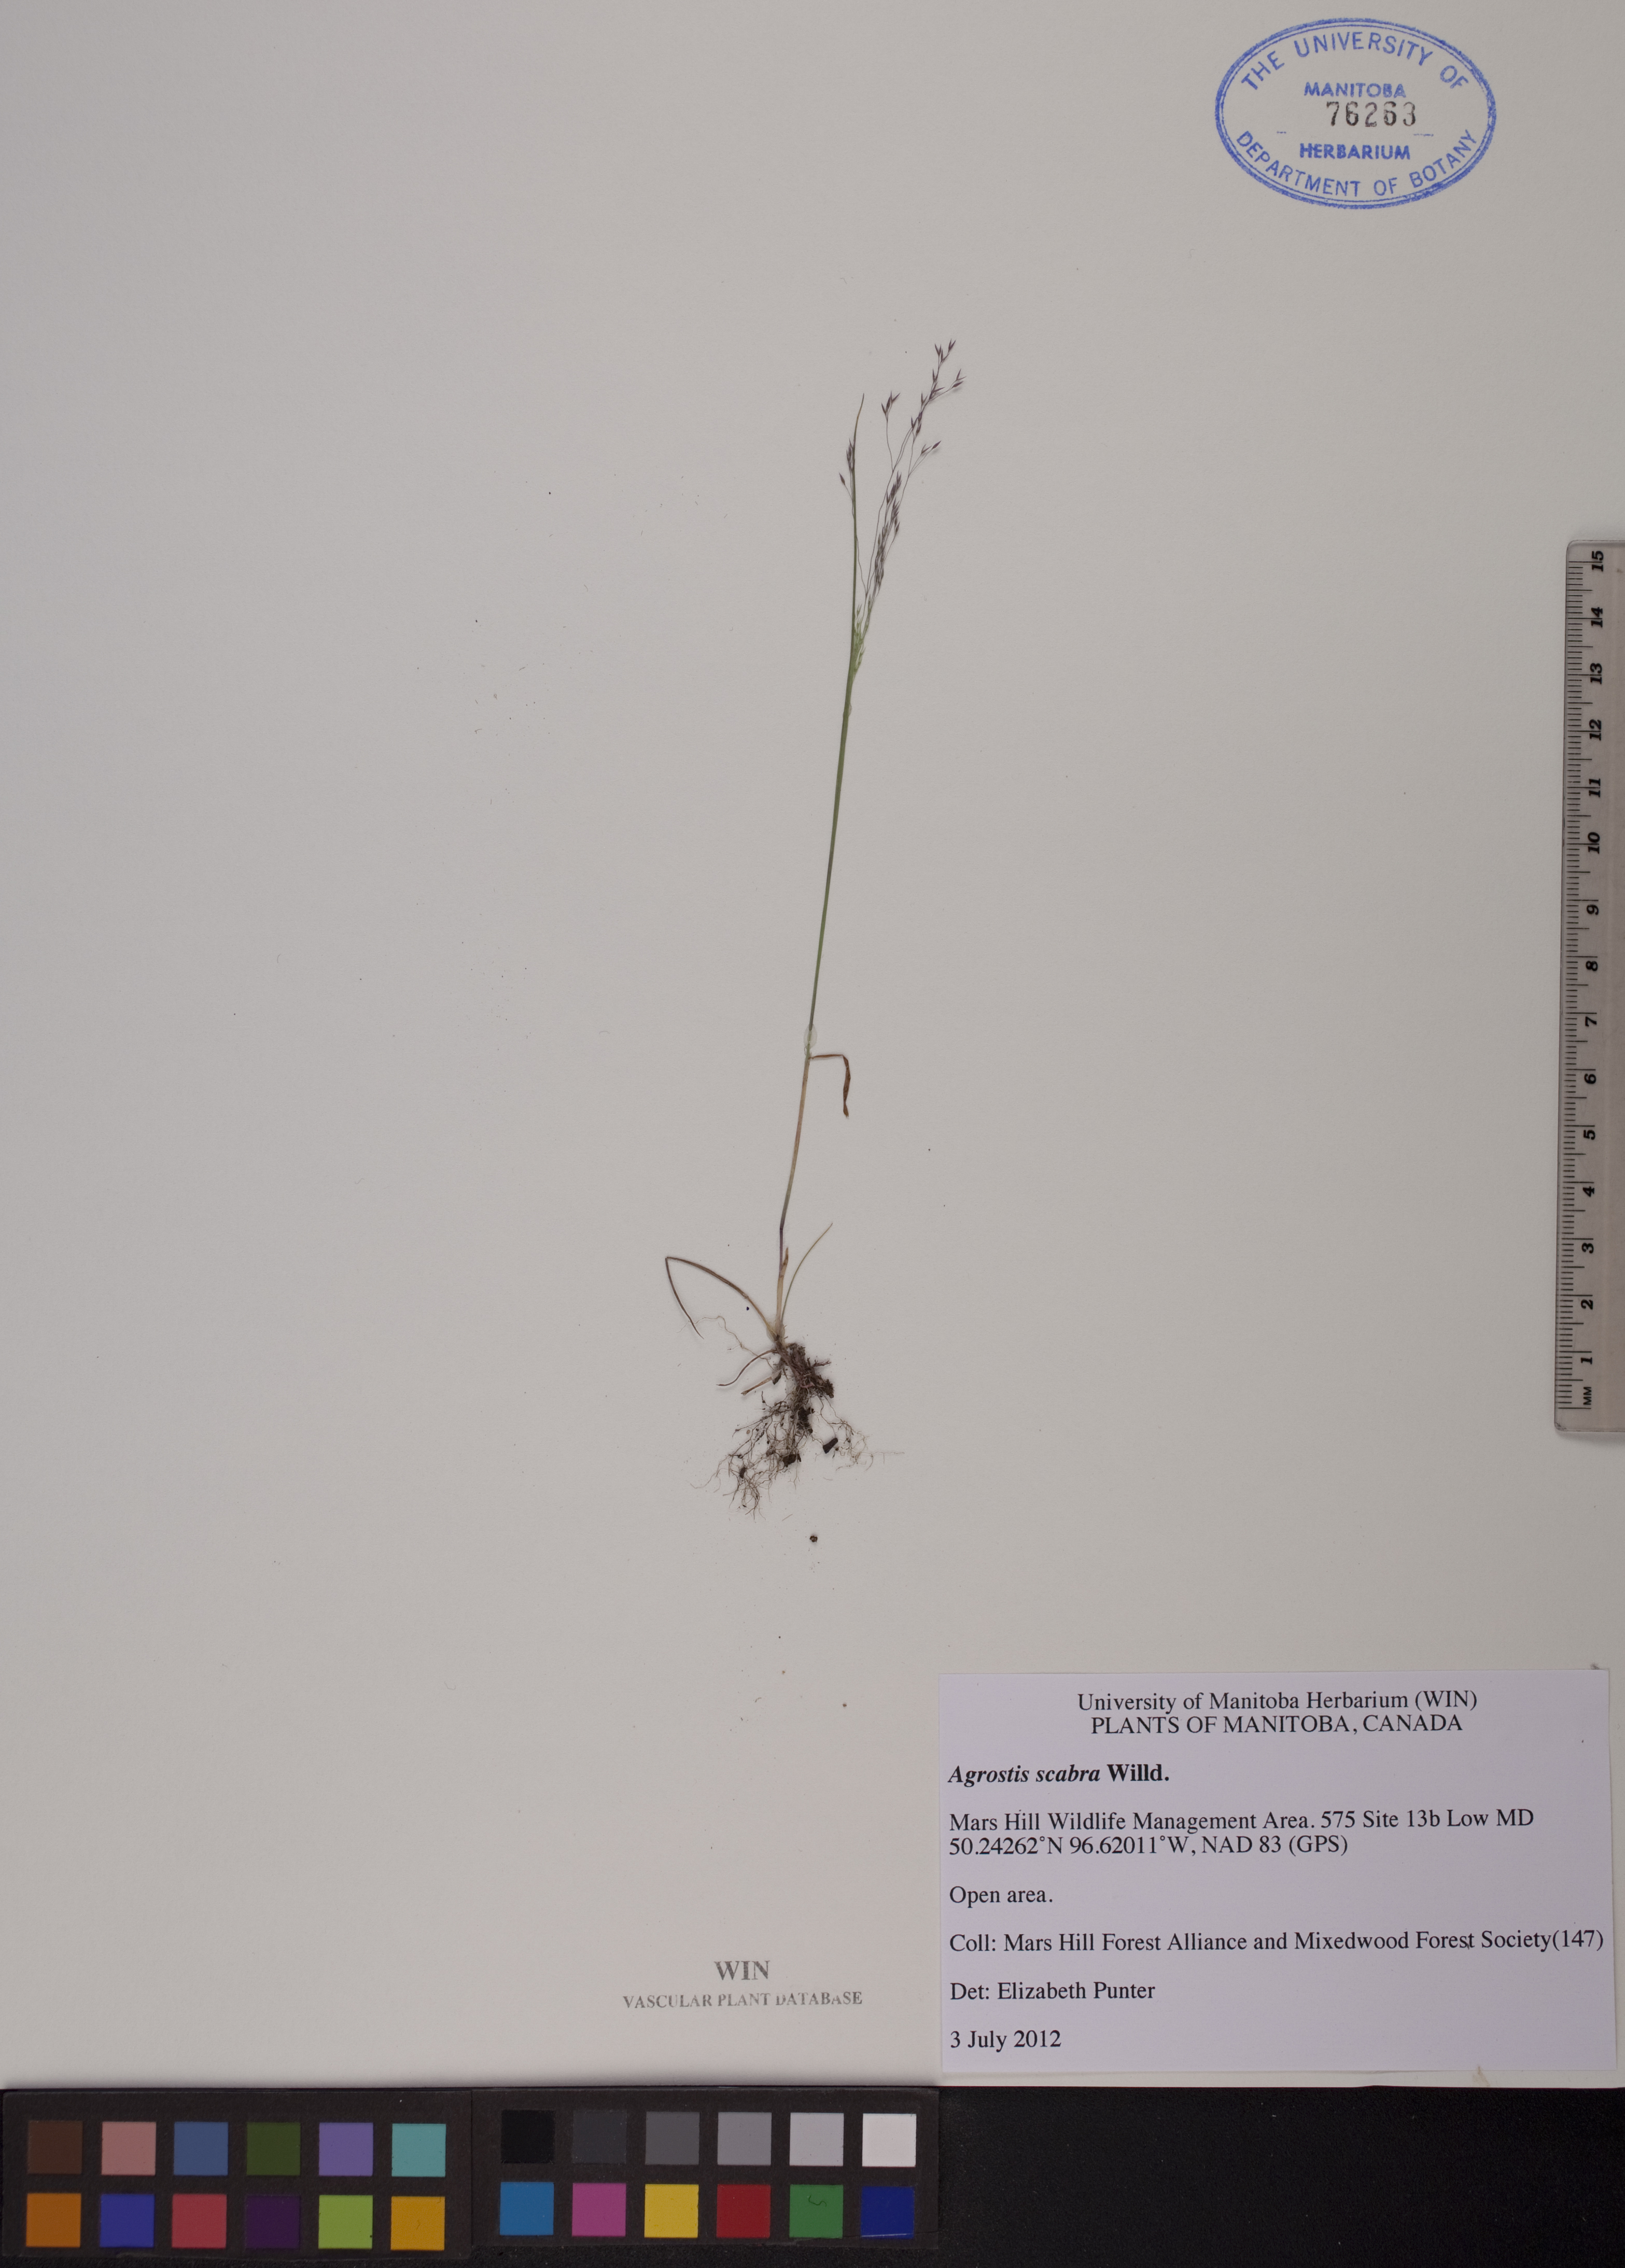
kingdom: Plantae
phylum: Tracheophyta
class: Liliopsida
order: Poales
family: Poaceae
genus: Agrostis
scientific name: Agrostis scabra
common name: Rough bent
